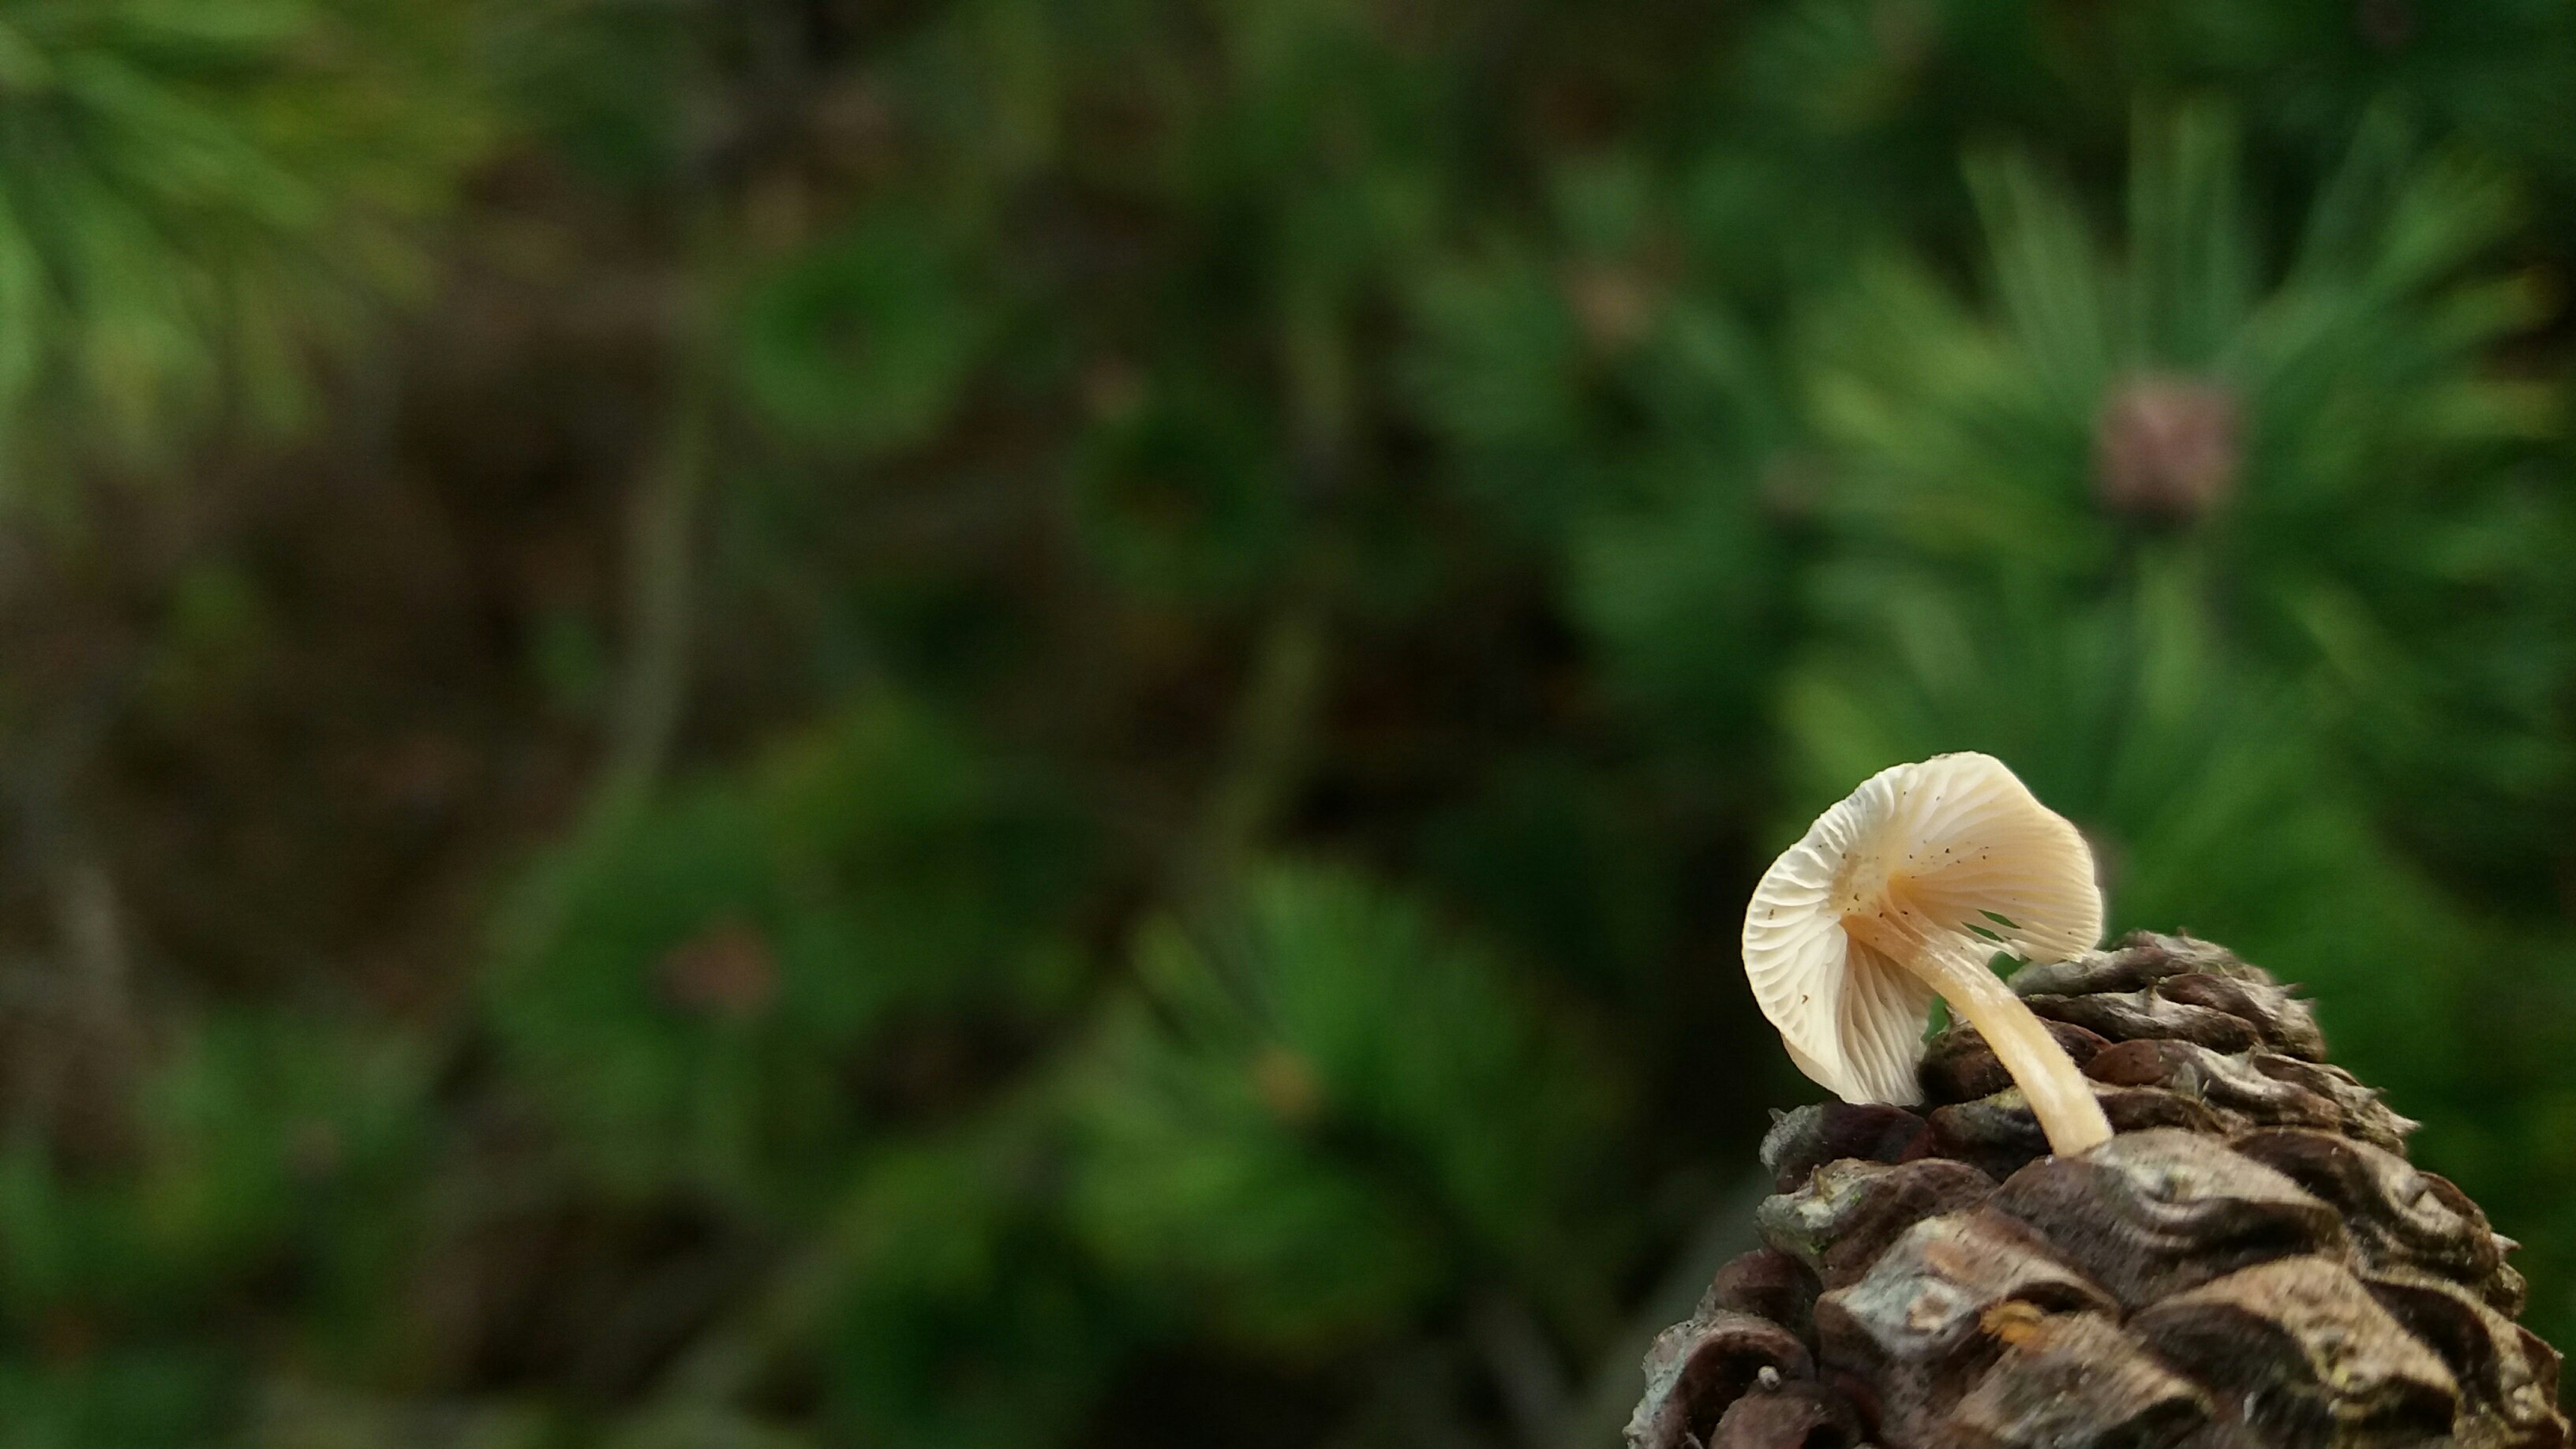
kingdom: Fungi
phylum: Basidiomycota
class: Agaricomycetes
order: Agaricales
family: Marasmiaceae
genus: Baeospora
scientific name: Baeospora myosura
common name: koglebruskhat
